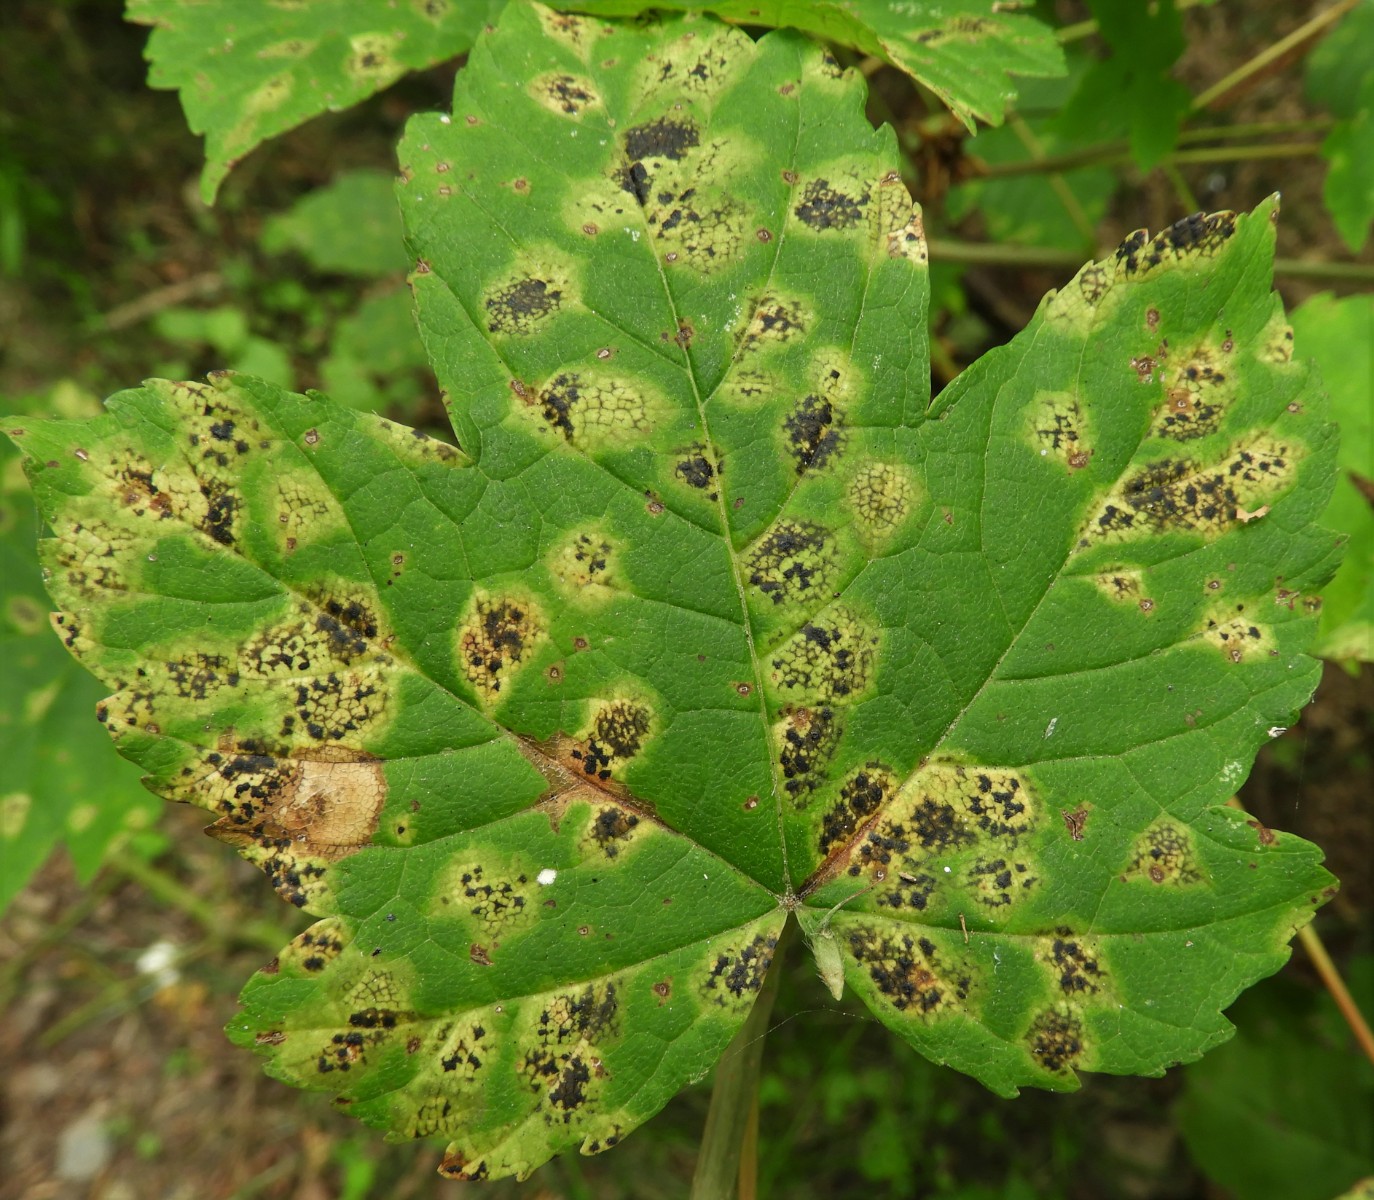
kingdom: Fungi
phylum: Ascomycota
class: Leotiomycetes
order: Rhytismatales
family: Rhytismataceae
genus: Rhytisma
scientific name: Rhytisma acerinum
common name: ahorn-rynkeplet
